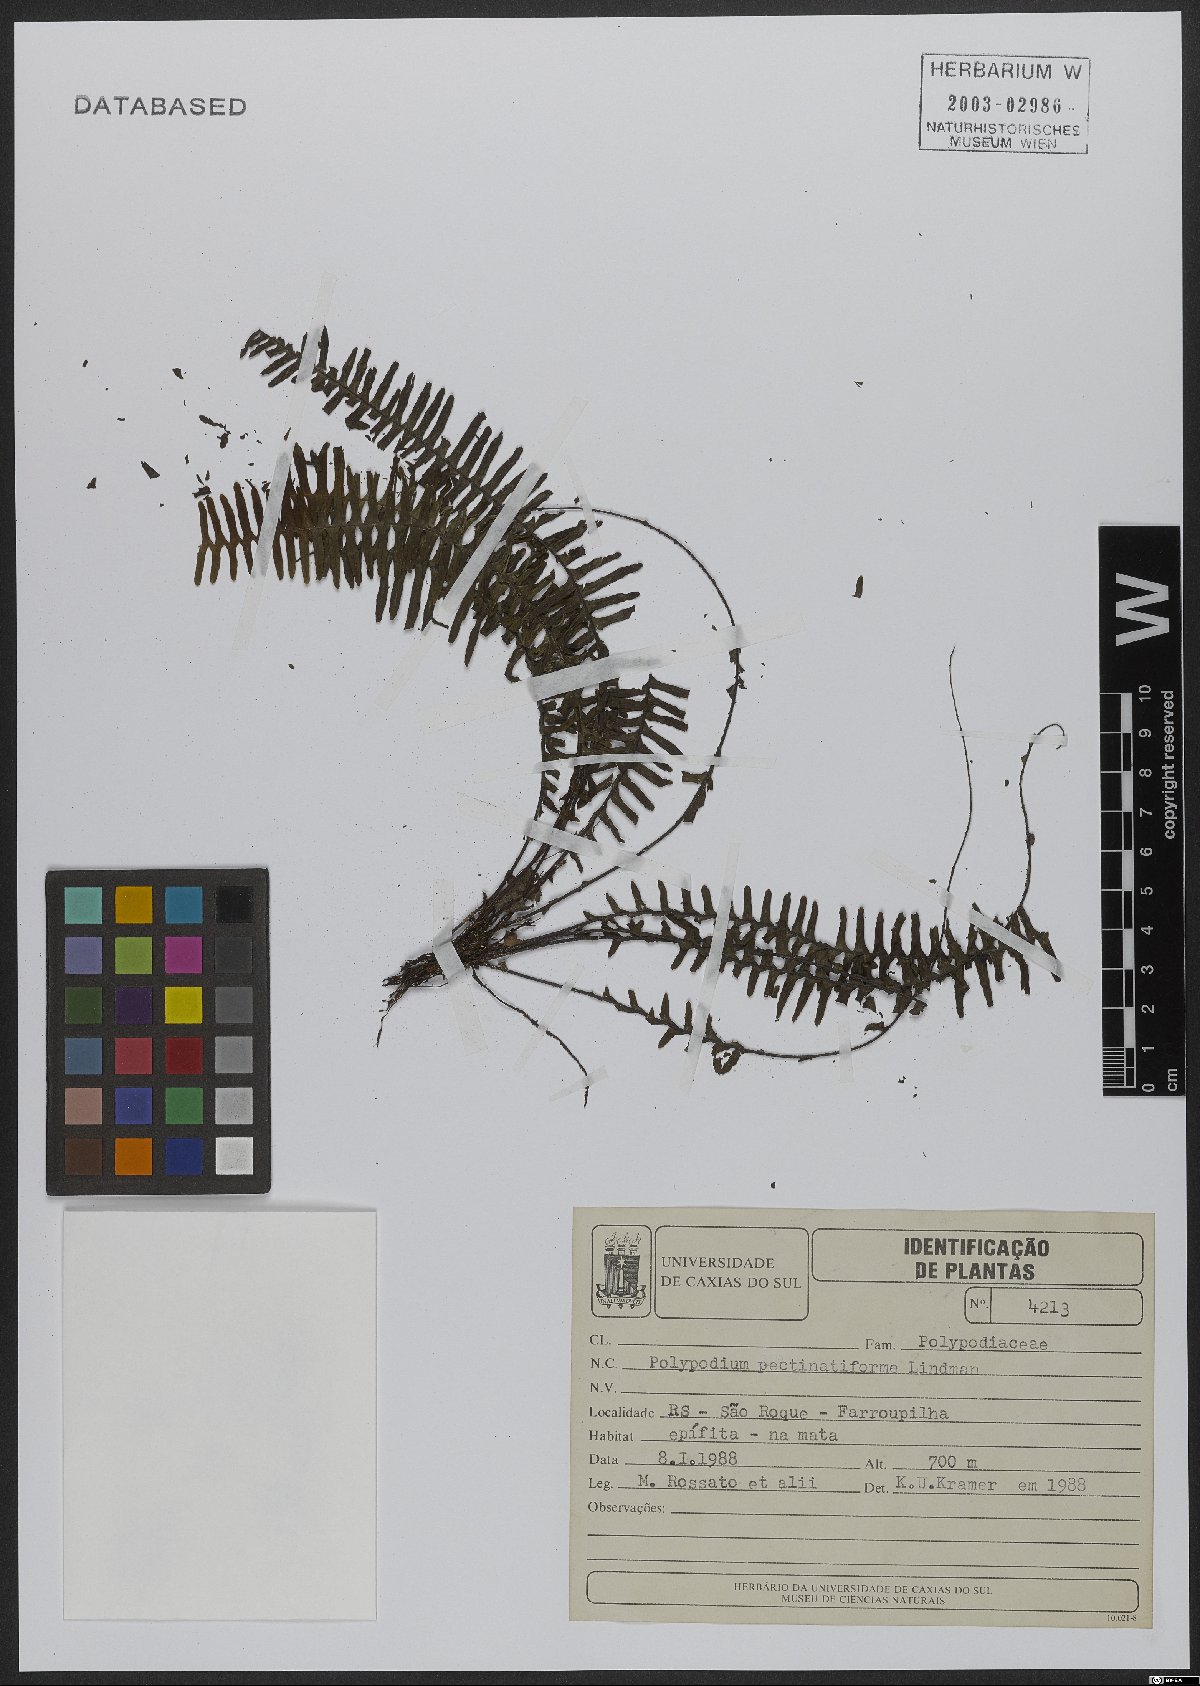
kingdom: Plantae
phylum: Tracheophyta
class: Polypodiopsida
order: Polypodiales
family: Polypodiaceae
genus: Pecluma
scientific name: Pecluma pectinatiformis
